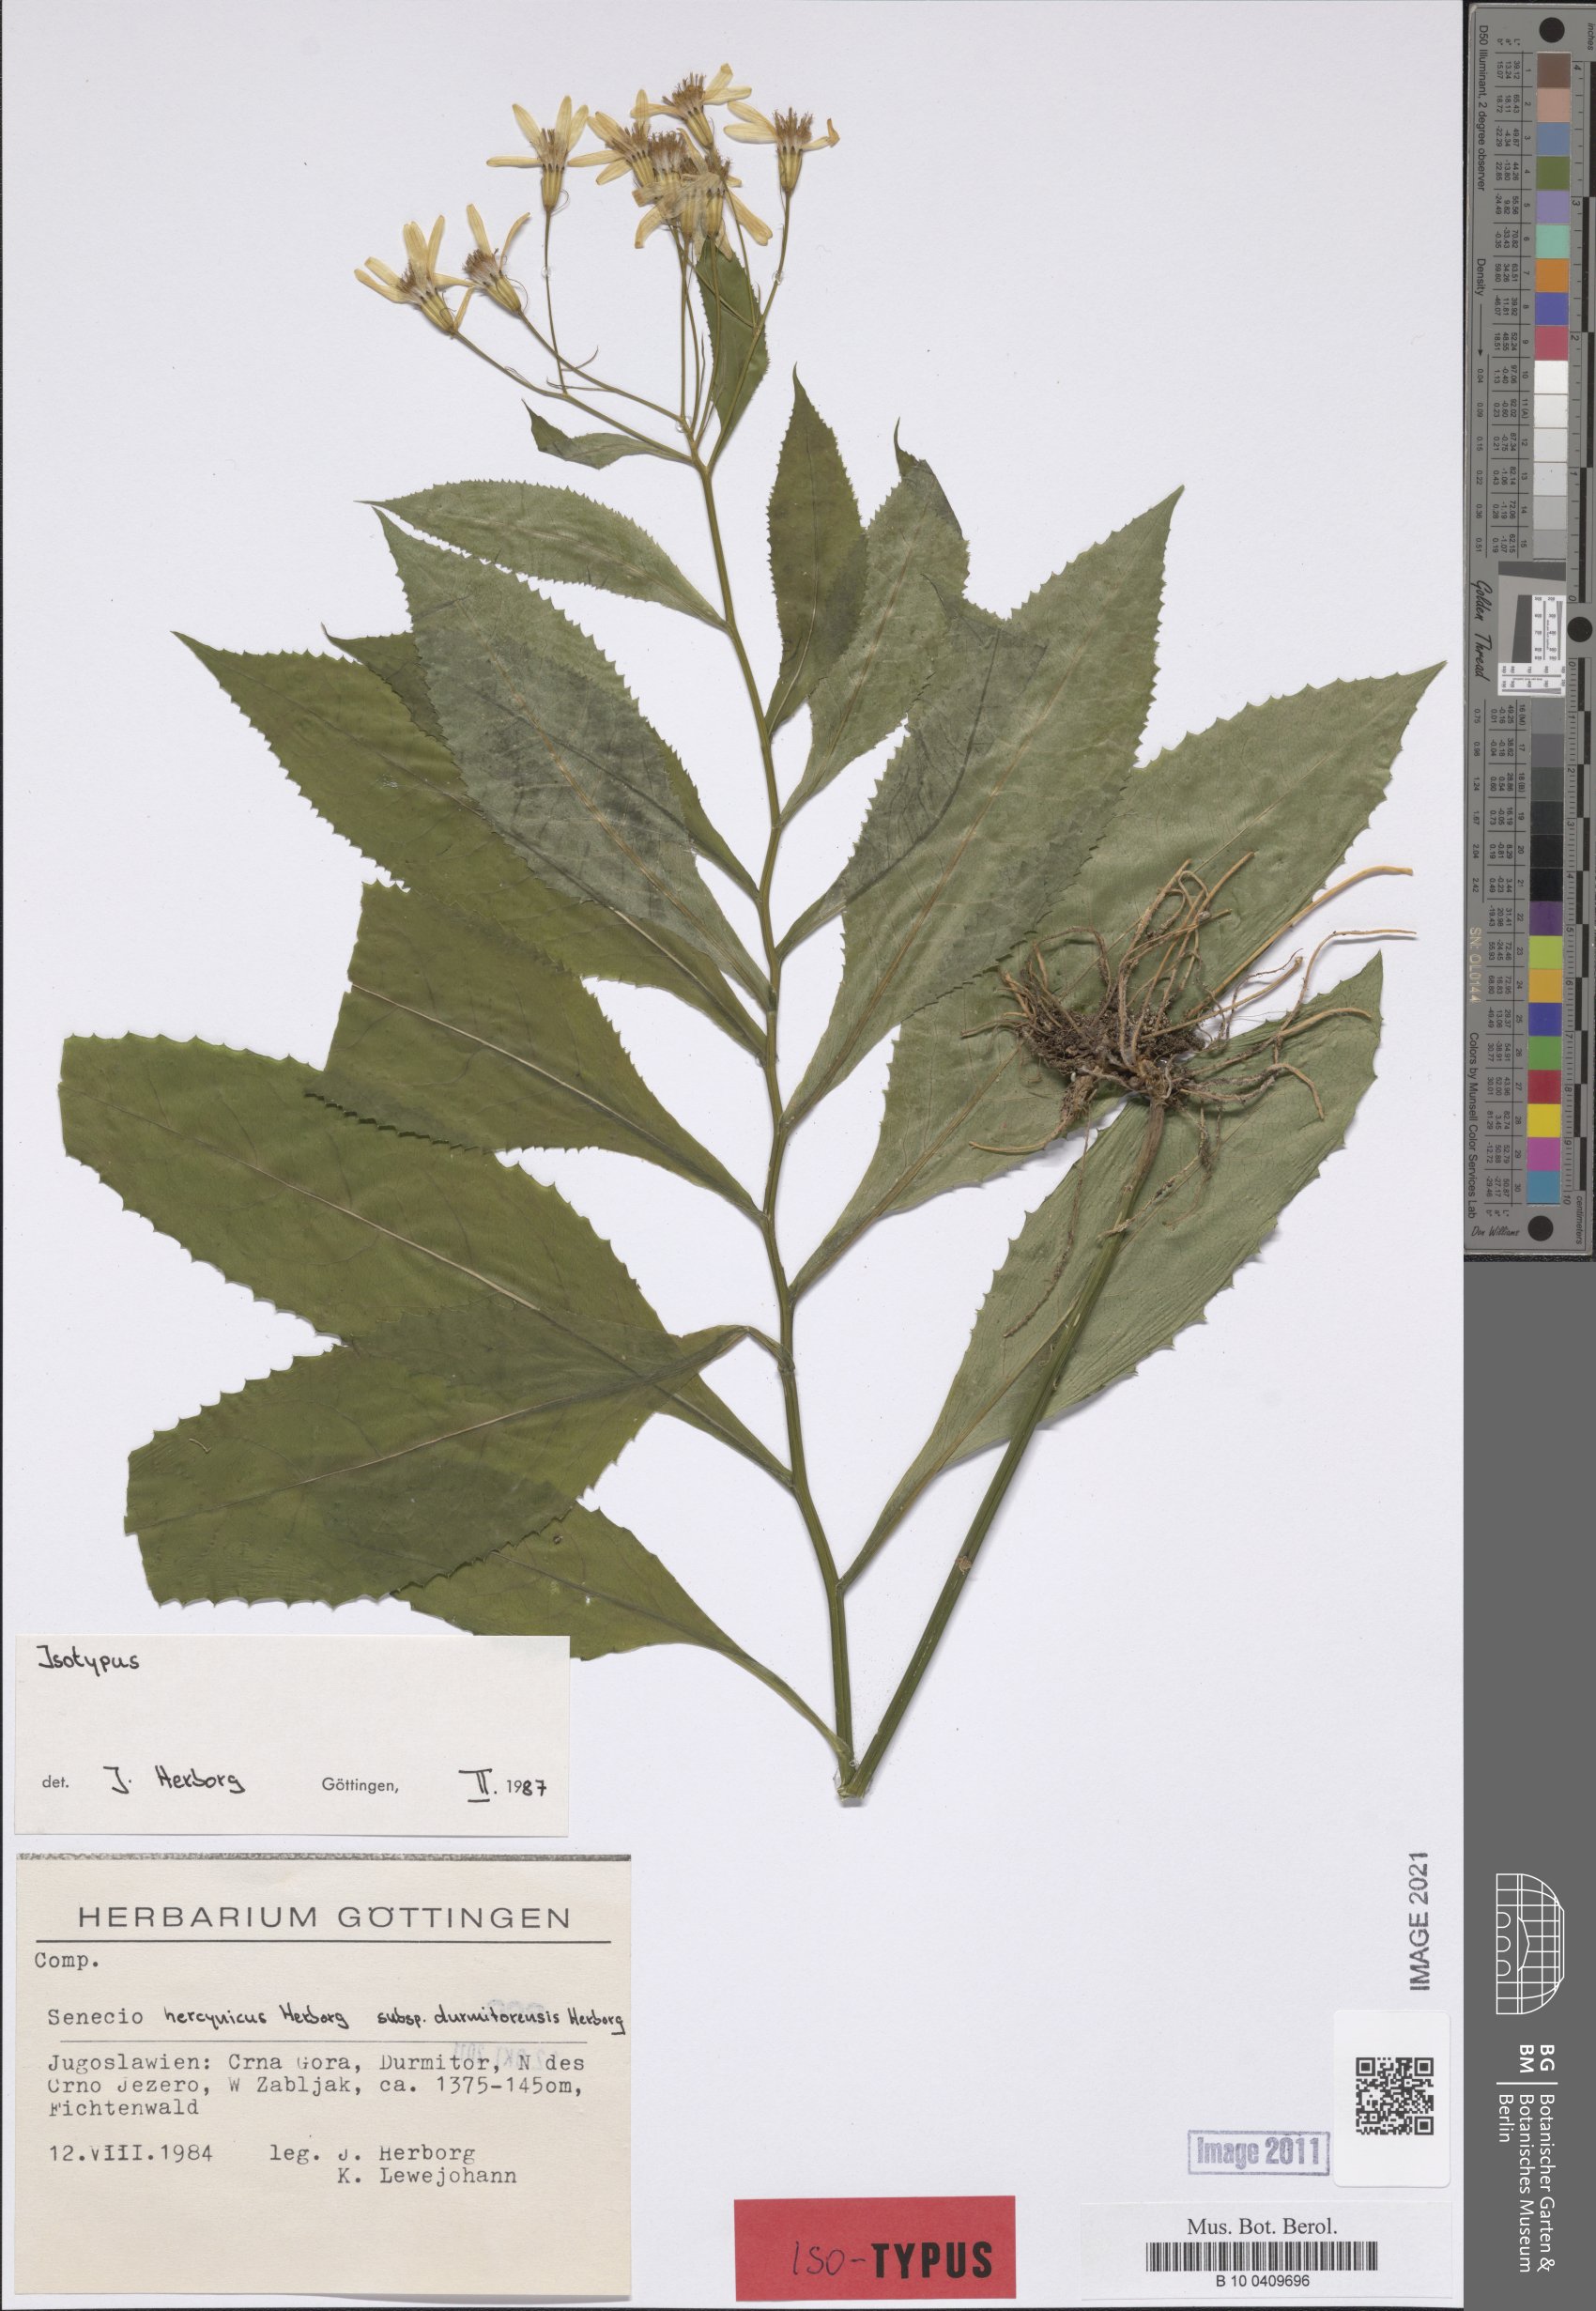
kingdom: Plantae
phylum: Tracheophyta
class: Magnoliopsida
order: Asterales
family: Asteraceae
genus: Senecio
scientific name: Senecio hercynicus
